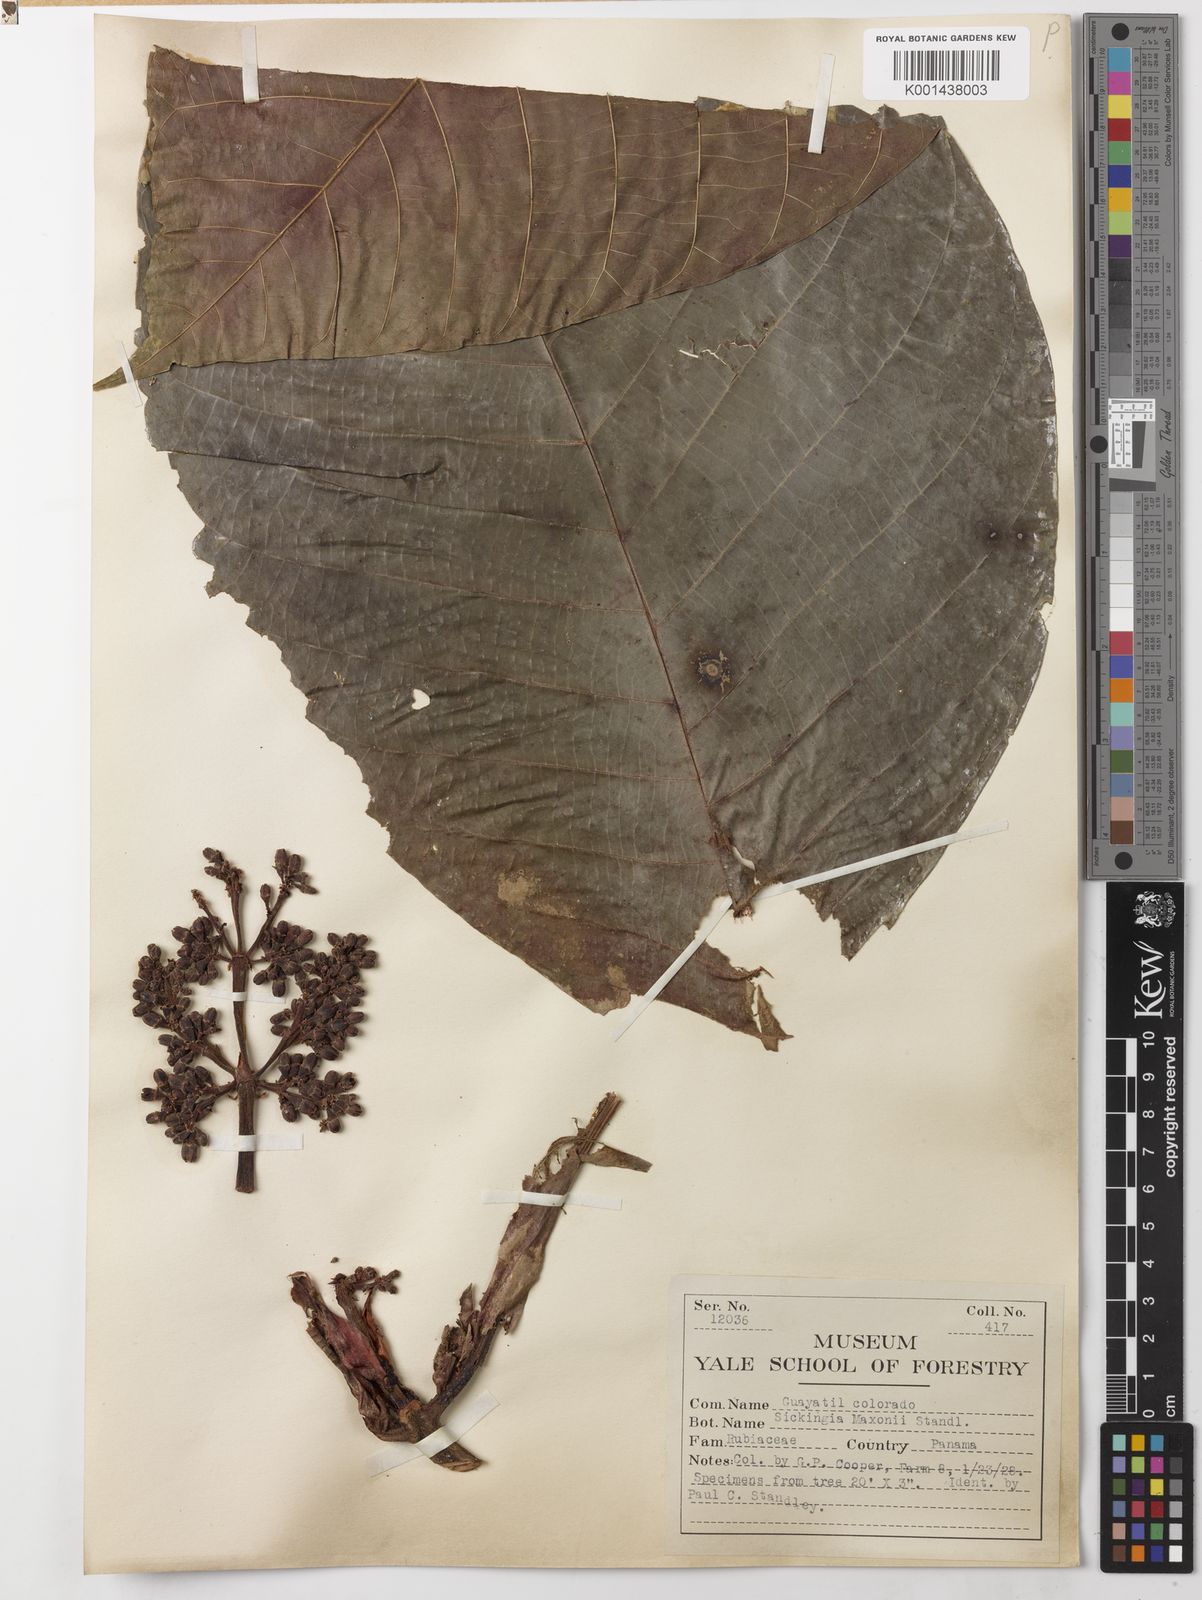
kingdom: Plantae
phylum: Tracheophyta
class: Magnoliopsida
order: Gentianales
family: Rubiaceae
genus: Simira
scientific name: Simira maxonii
